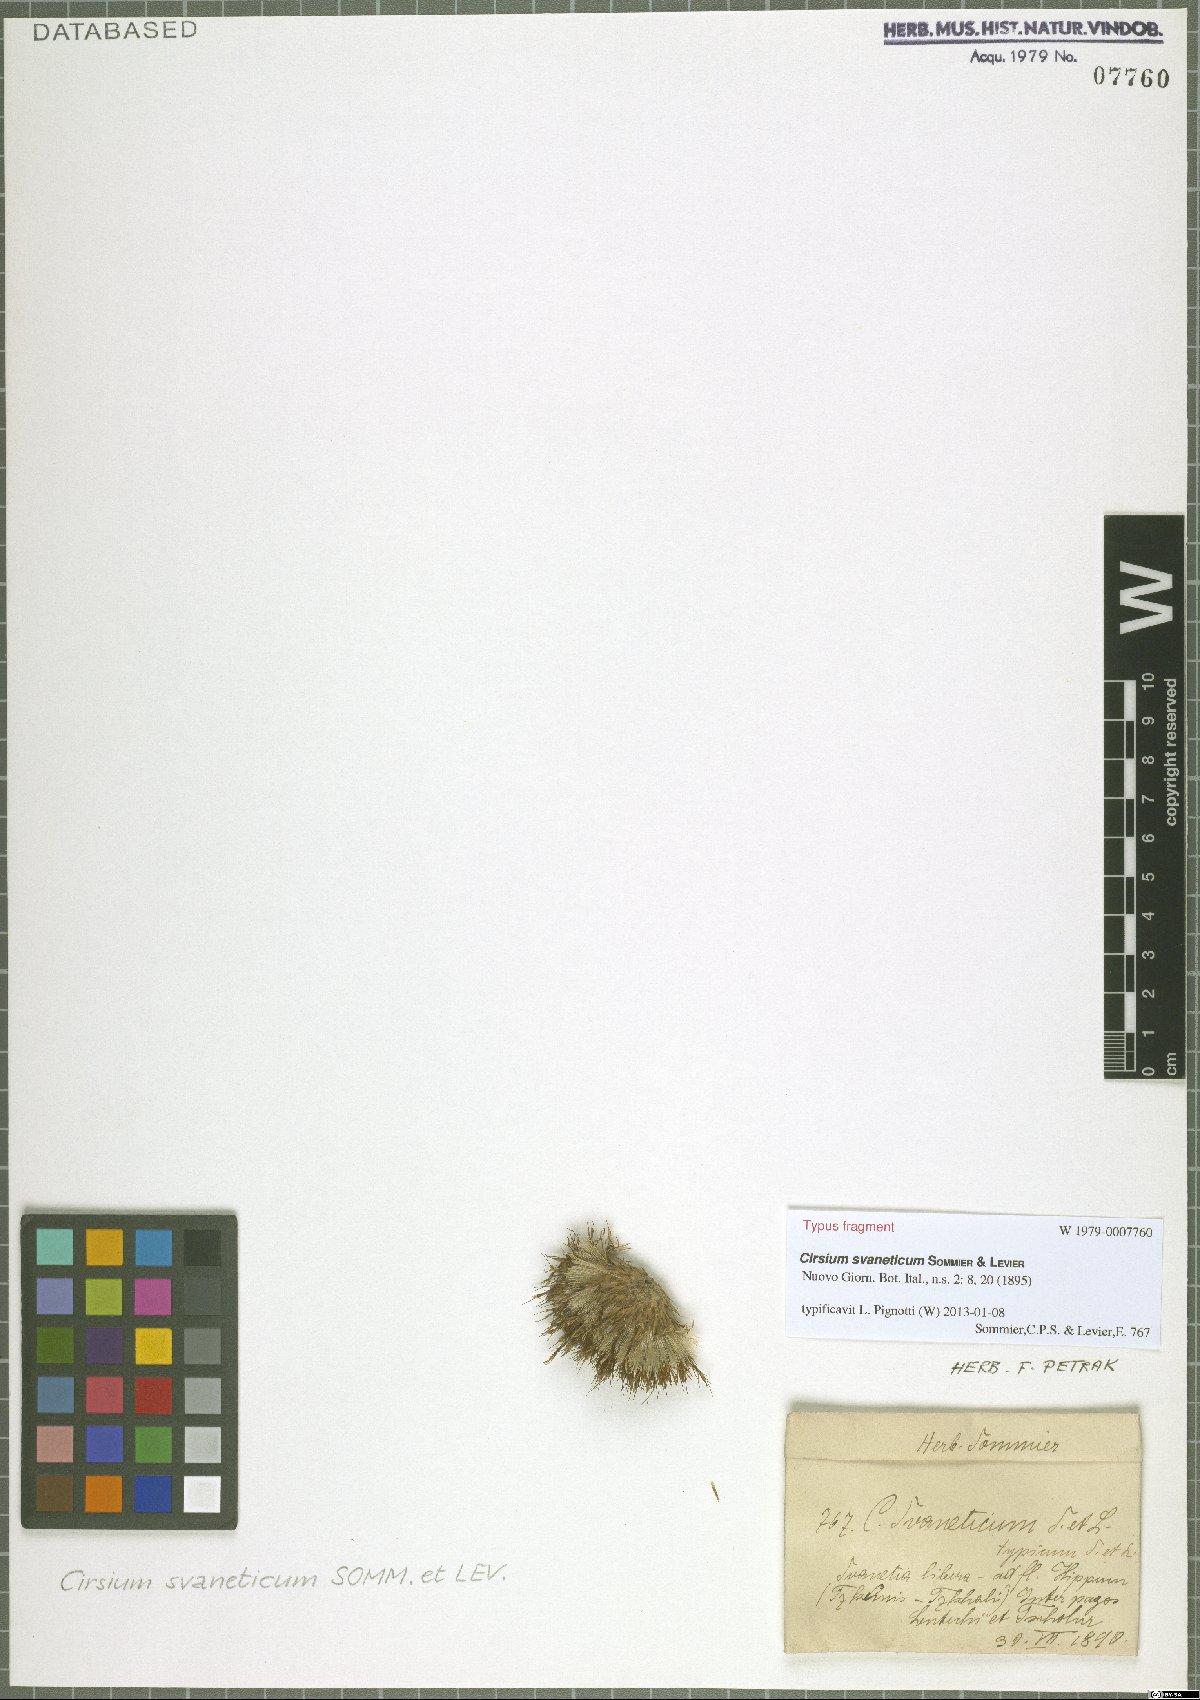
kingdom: Plantae
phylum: Tracheophyta
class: Magnoliopsida
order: Asterales
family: Asteraceae
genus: Cirsium
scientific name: Cirsium svaneticum
